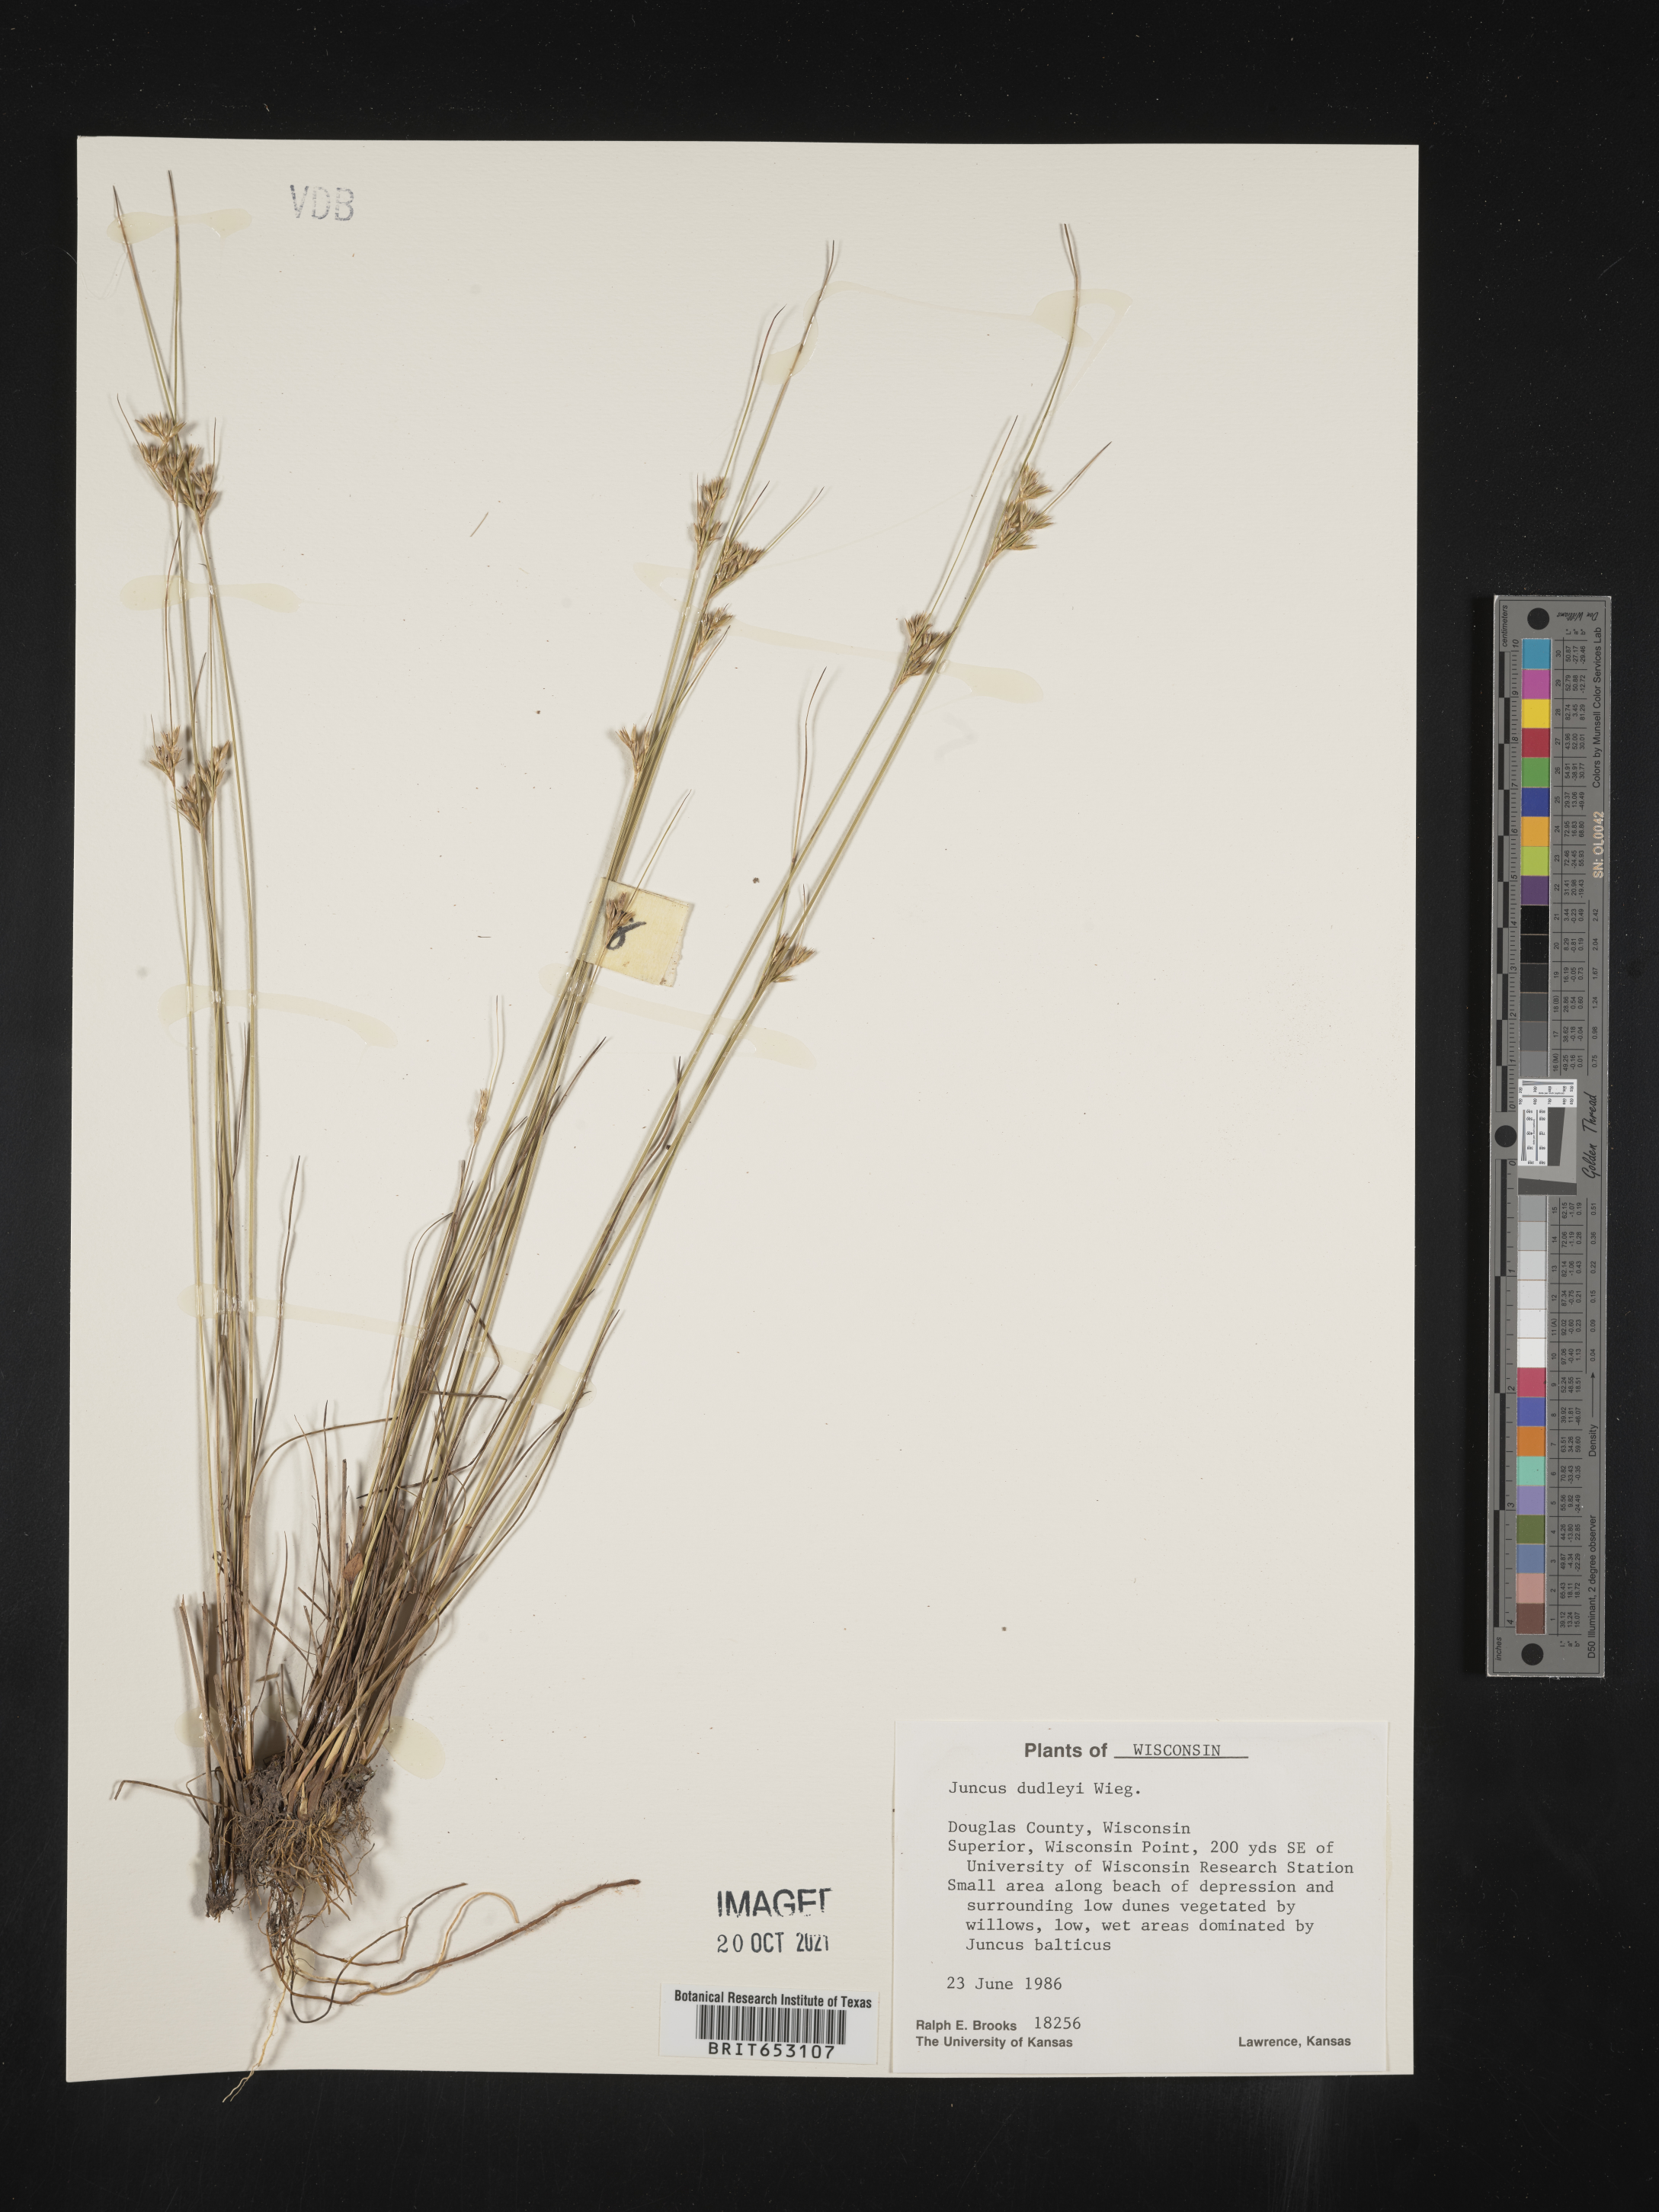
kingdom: Plantae
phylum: Tracheophyta
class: Liliopsida
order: Poales
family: Juncaceae
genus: Juncus
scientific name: Juncus dudleyi
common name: Dudley's rush
